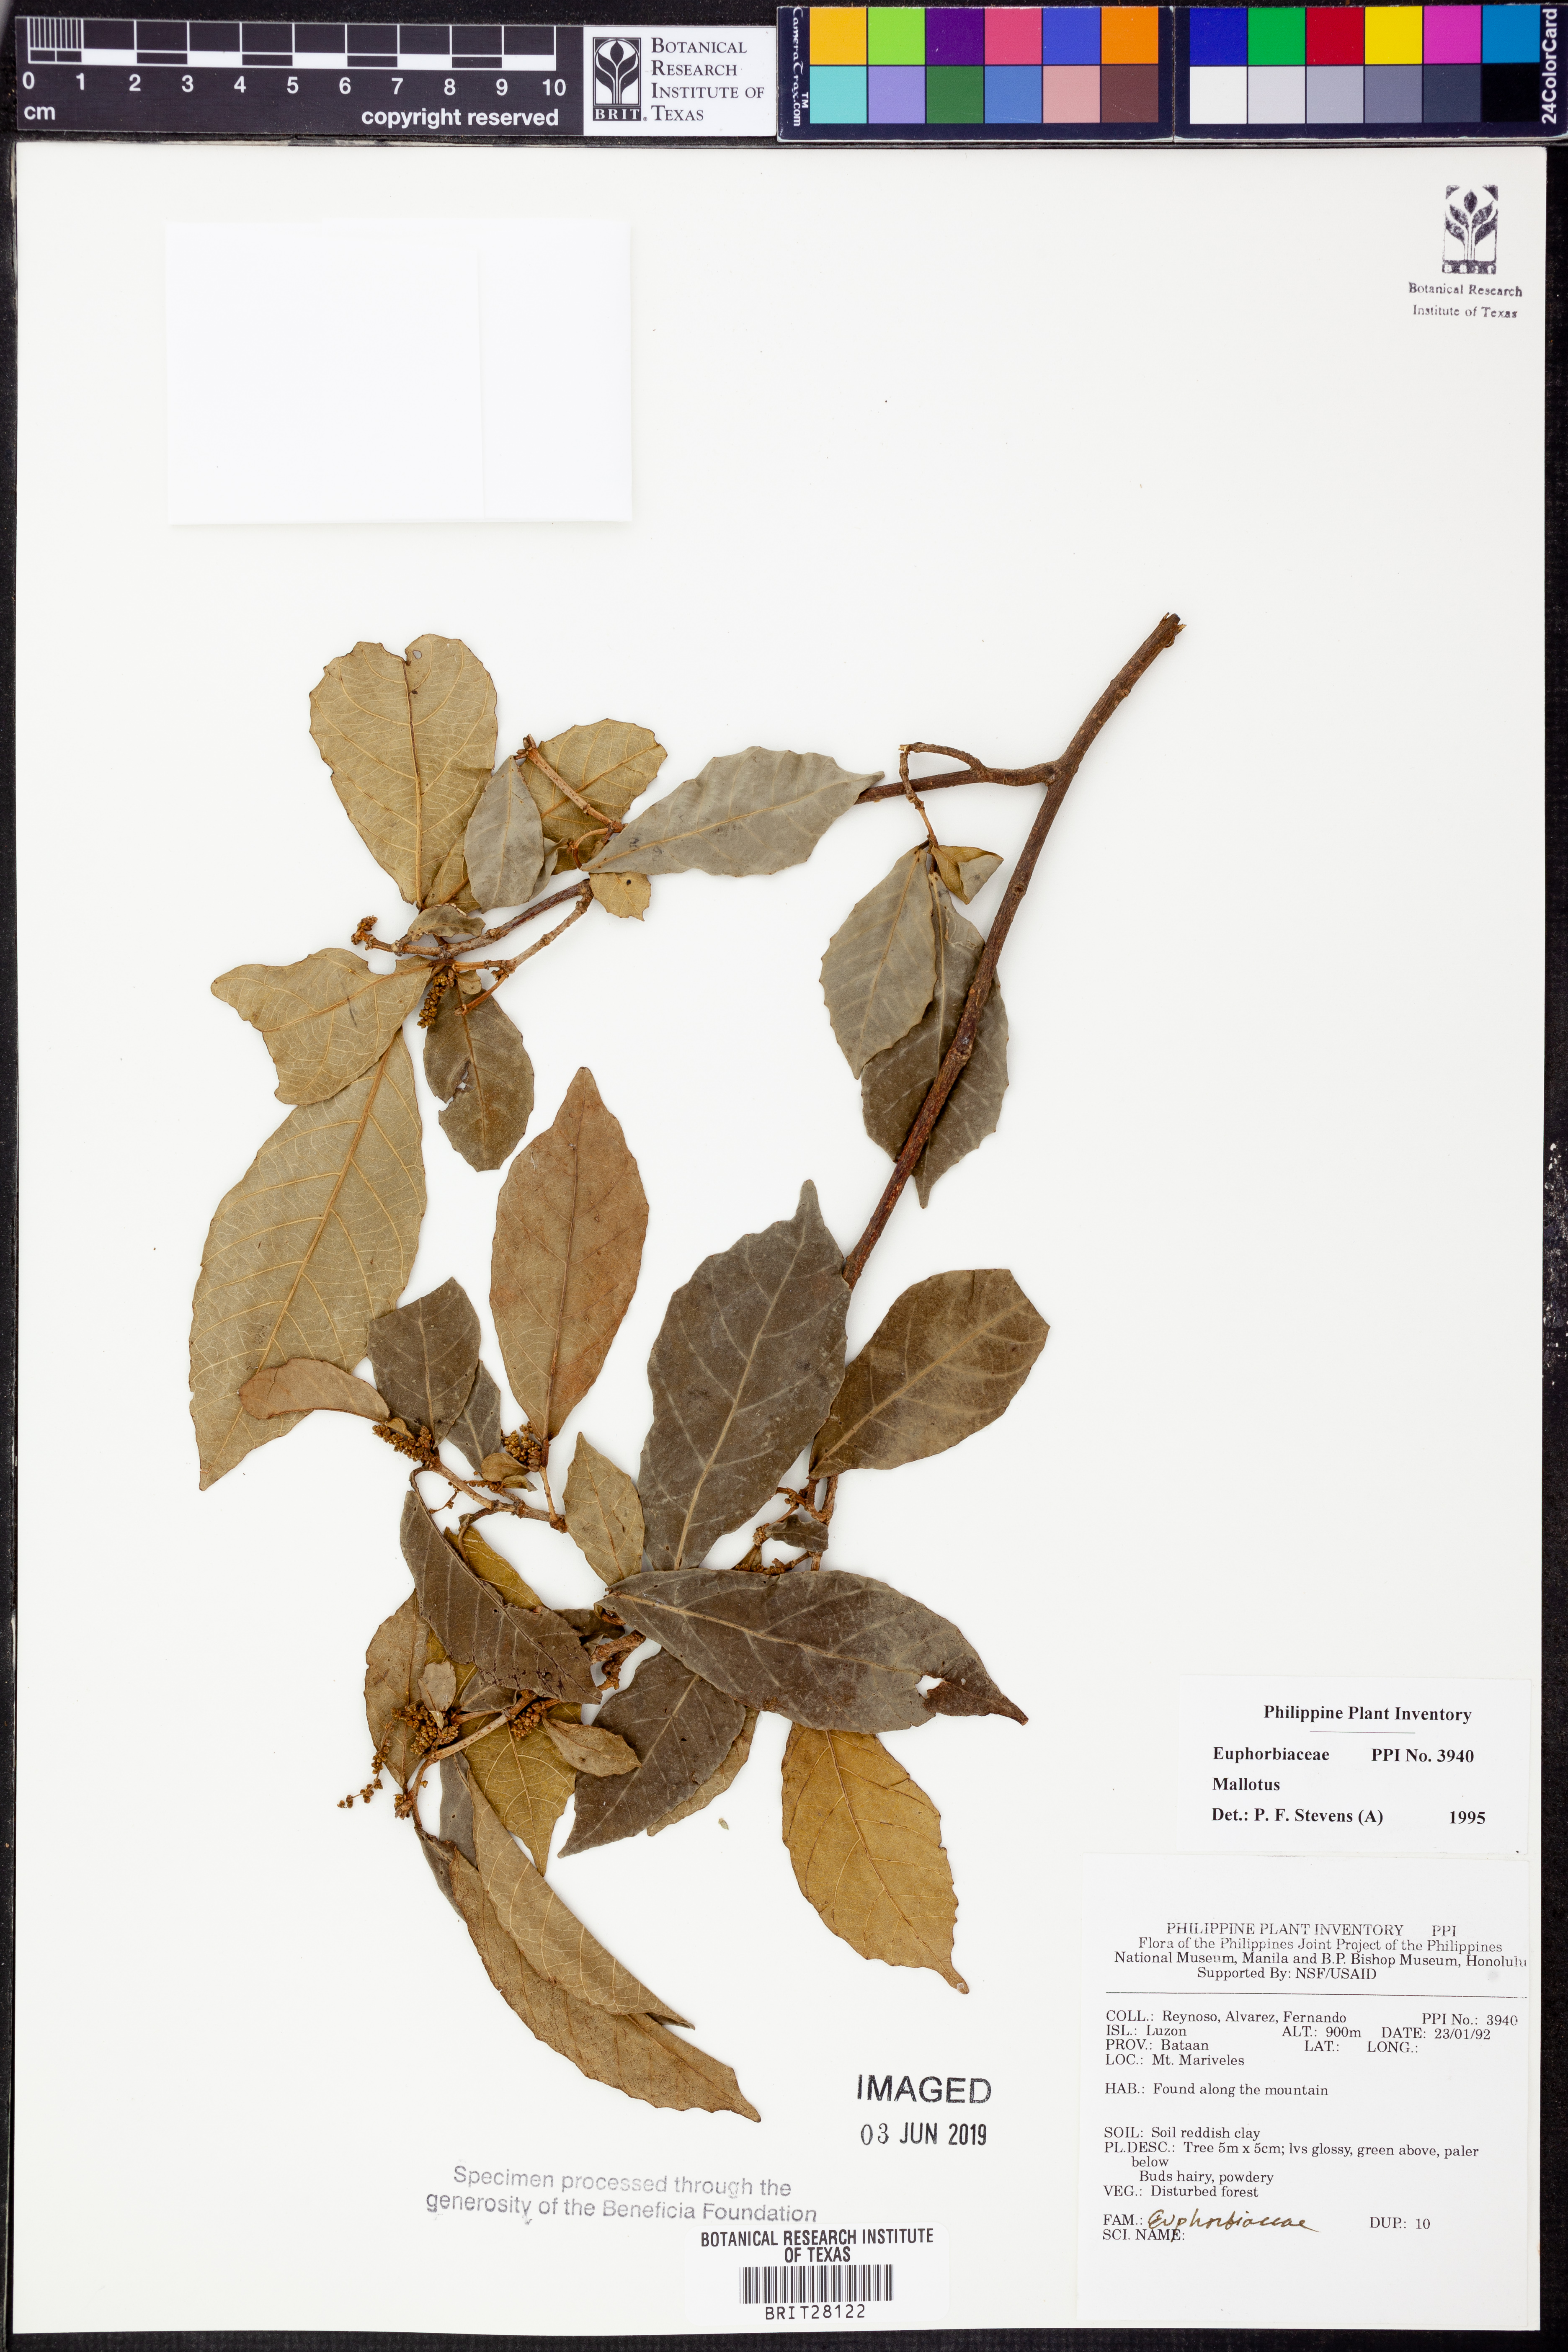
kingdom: Plantae
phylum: Tracheophyta
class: Magnoliopsida
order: Malpighiales
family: Euphorbiaceae
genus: Mallotus
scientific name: Mallotus
